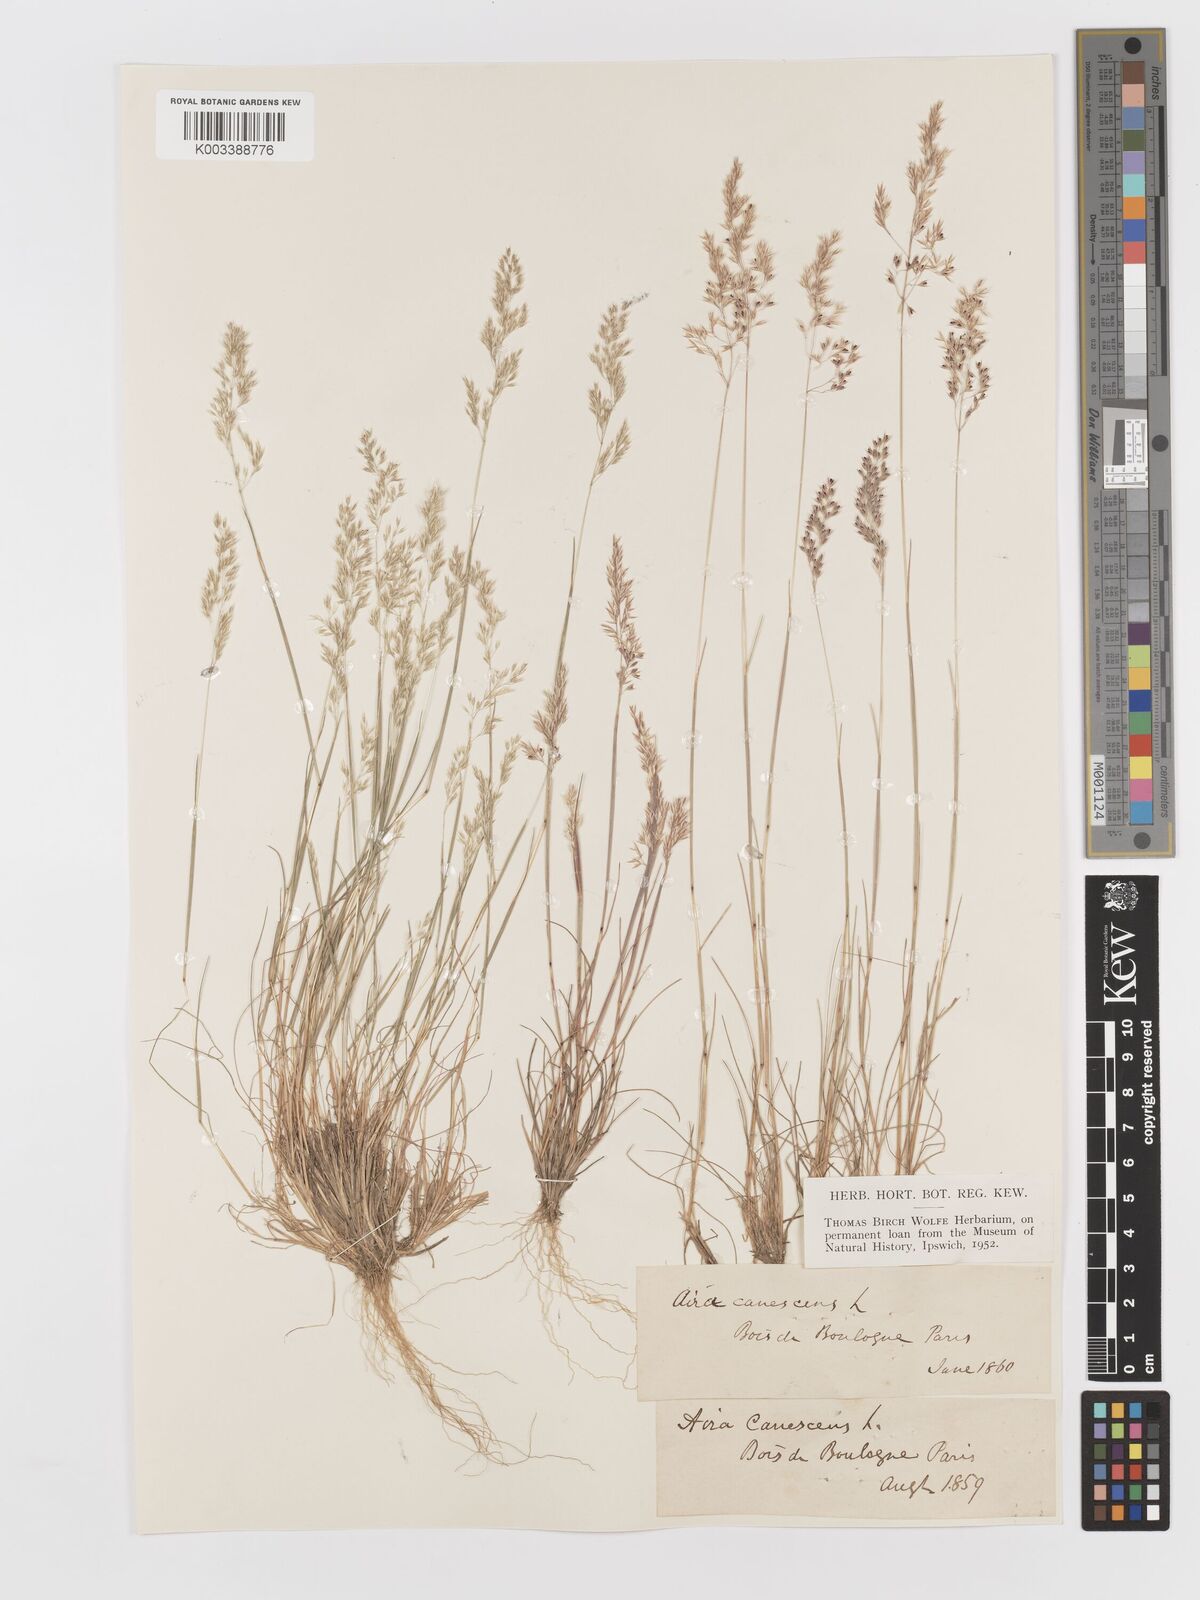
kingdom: Plantae
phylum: Tracheophyta
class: Liliopsida
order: Poales
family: Poaceae
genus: Corynephorus
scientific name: Corynephorus canescens
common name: Grey hair-grass
